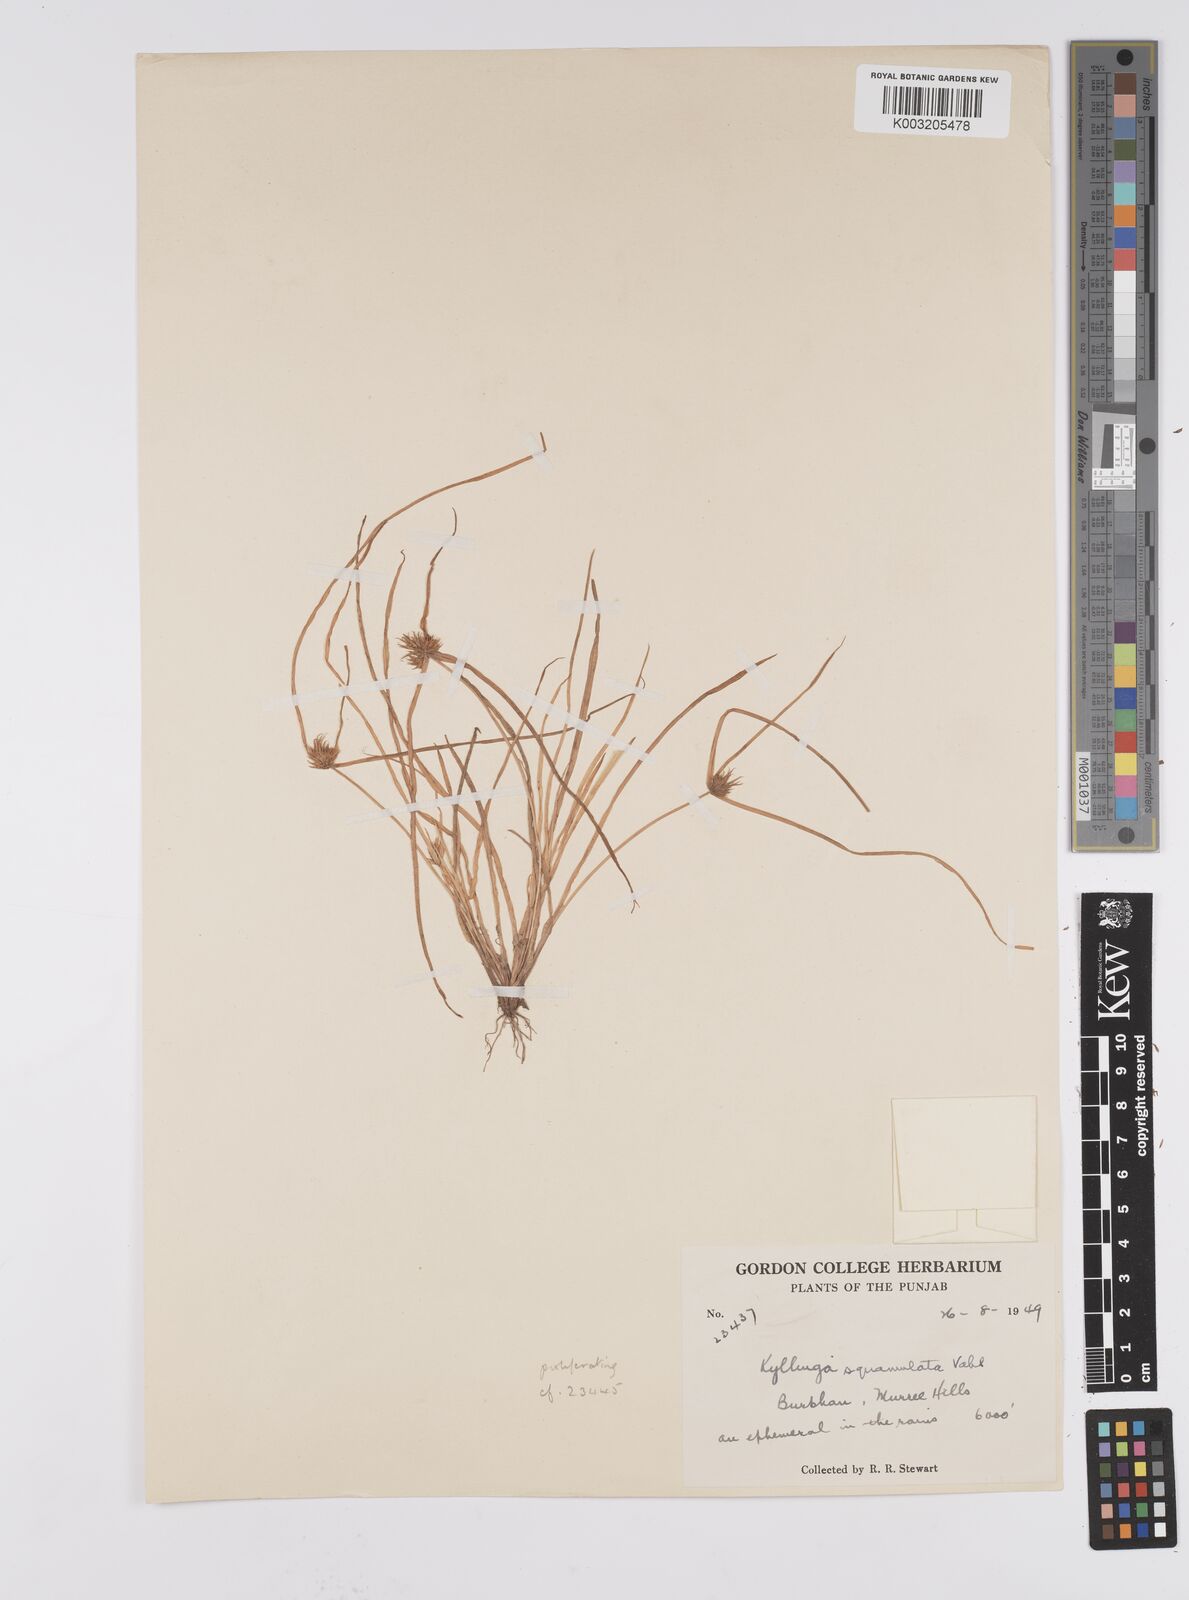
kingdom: Plantae
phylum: Tracheophyta
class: Liliopsida
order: Poales
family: Cyperaceae
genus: Cyperus
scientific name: Cyperus
